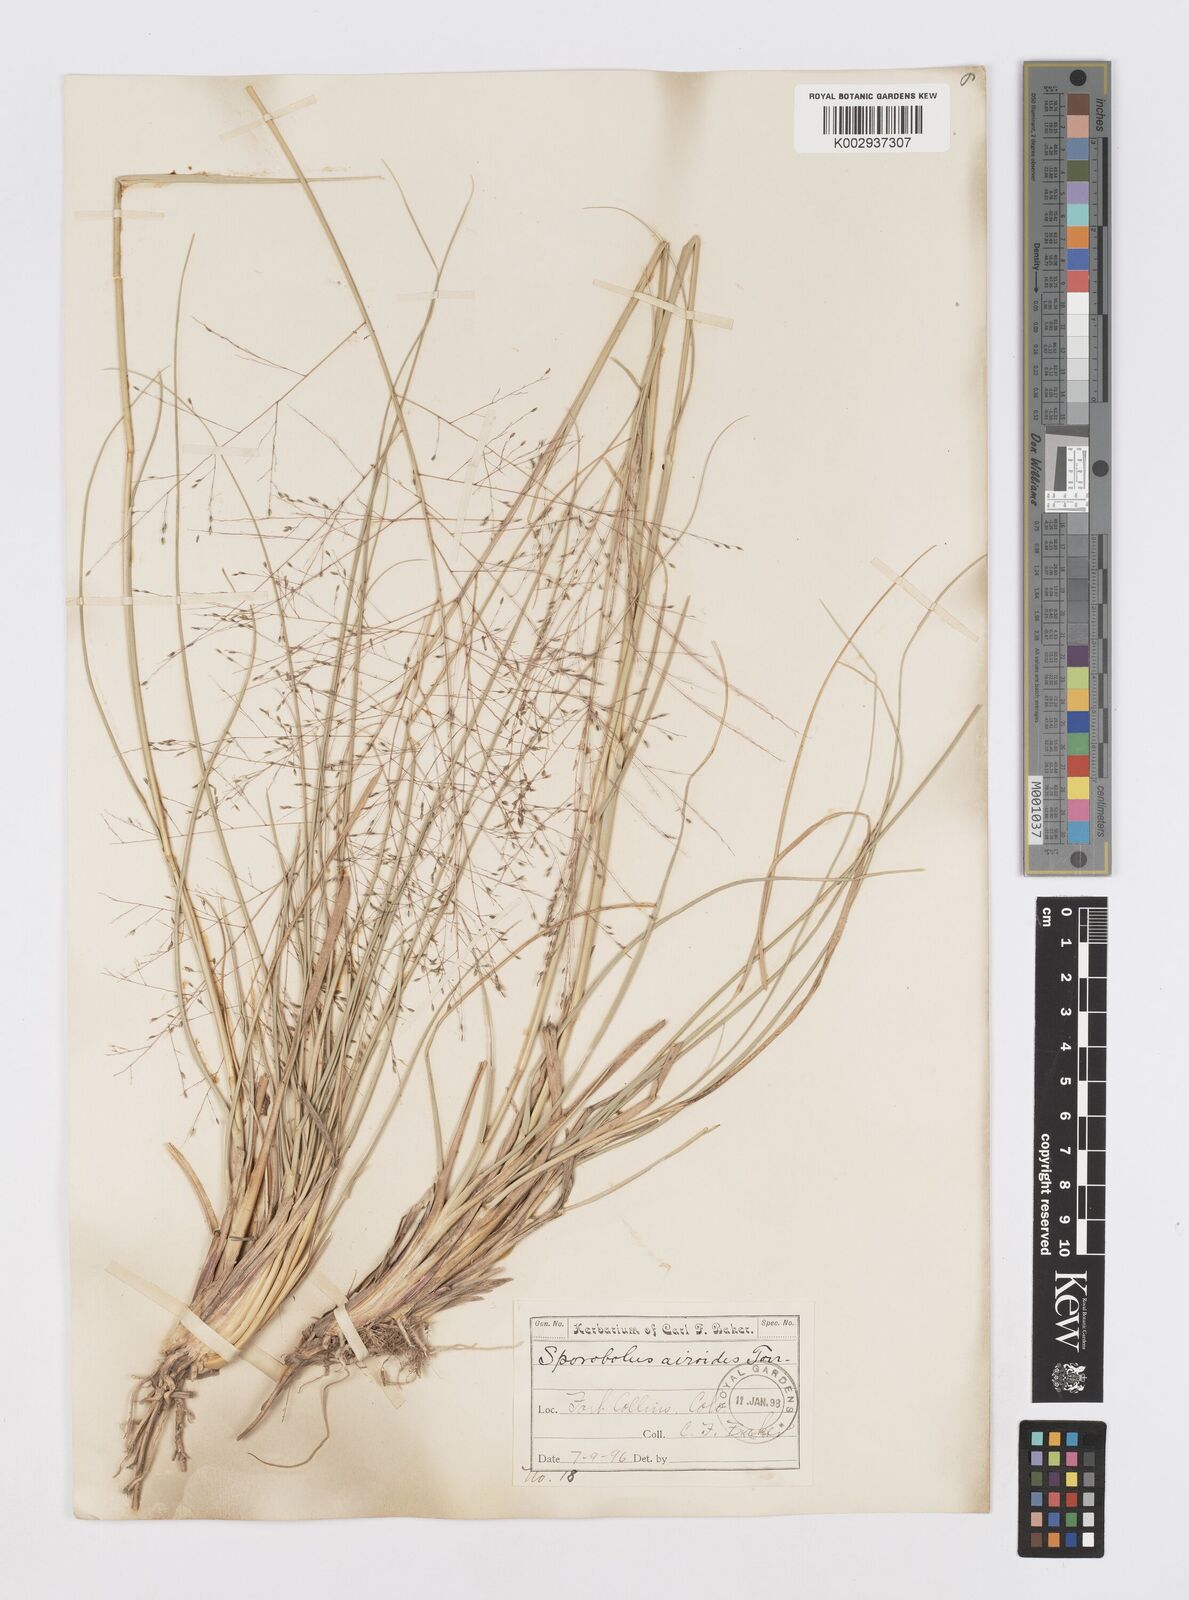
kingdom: Plantae
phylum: Tracheophyta
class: Liliopsida
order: Poales
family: Poaceae
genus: Sporobolus
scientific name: Sporobolus airoides
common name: Alkali sacaton
